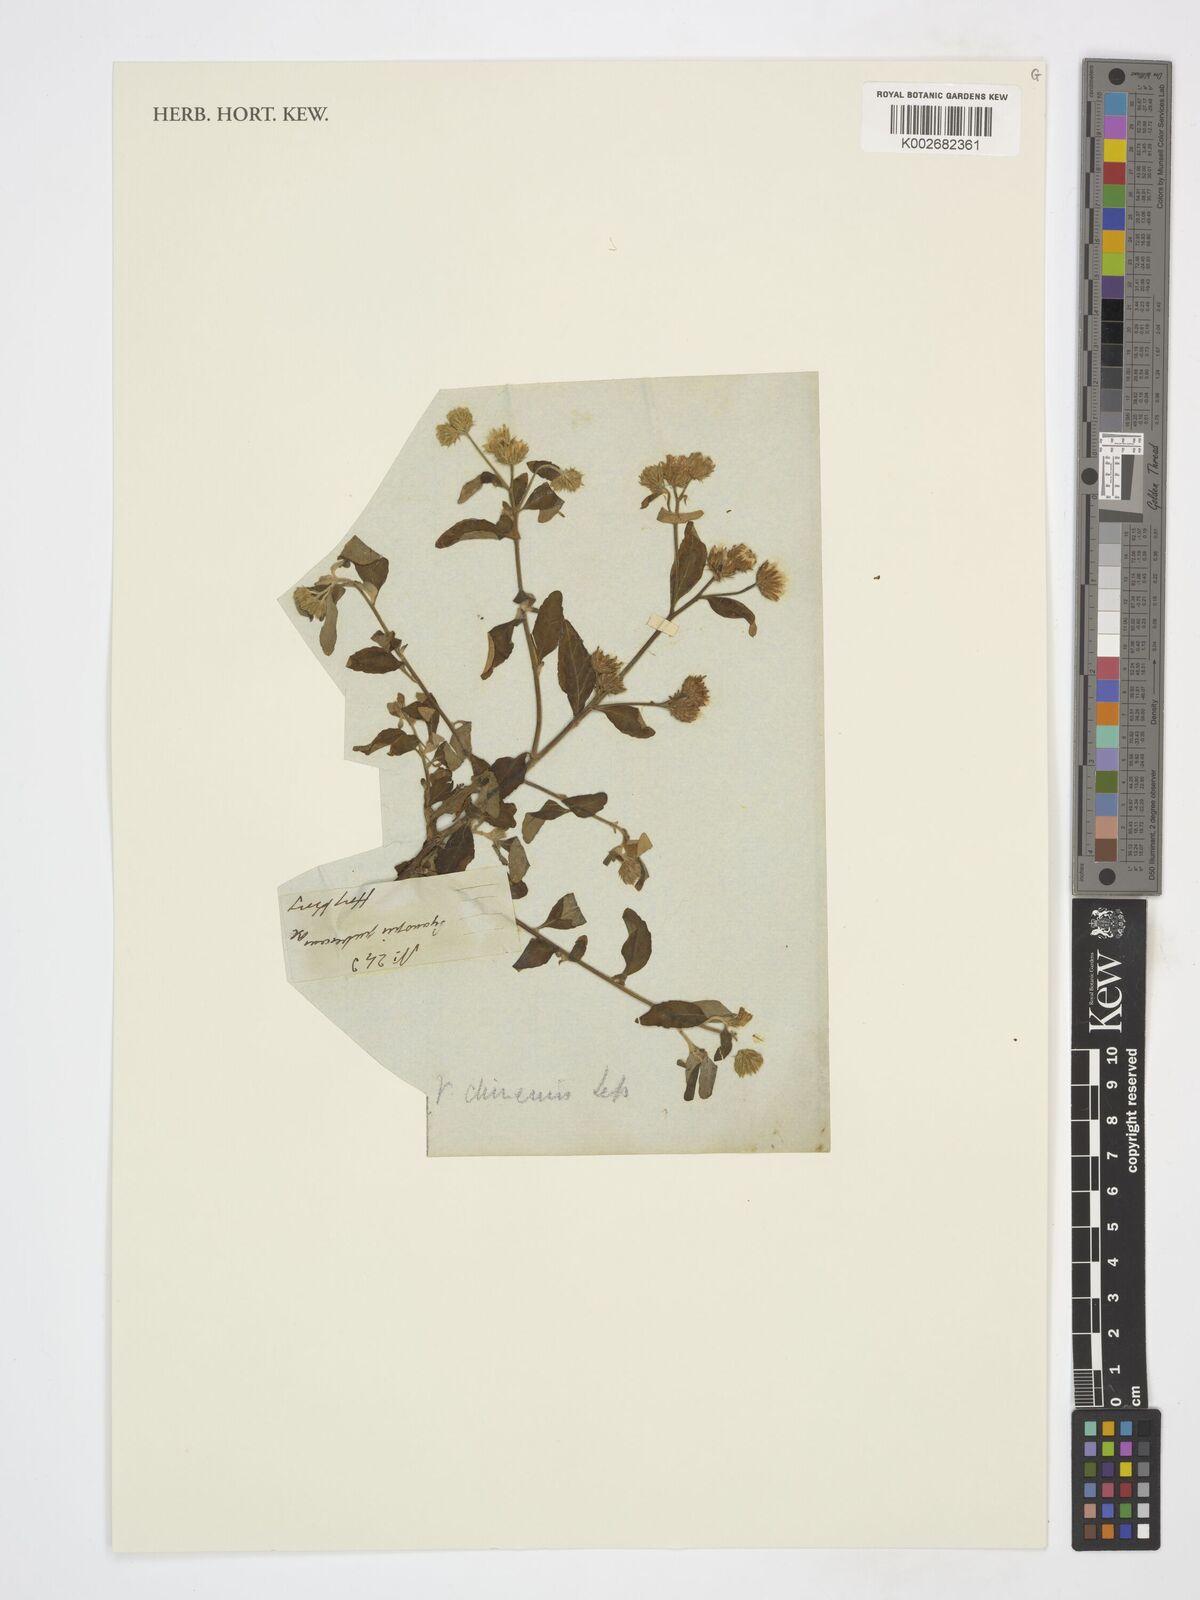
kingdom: Plantae
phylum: Tracheophyta
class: Magnoliopsida
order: Asterales
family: Asteraceae
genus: Cyanthillium
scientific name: Cyanthillium patulum
